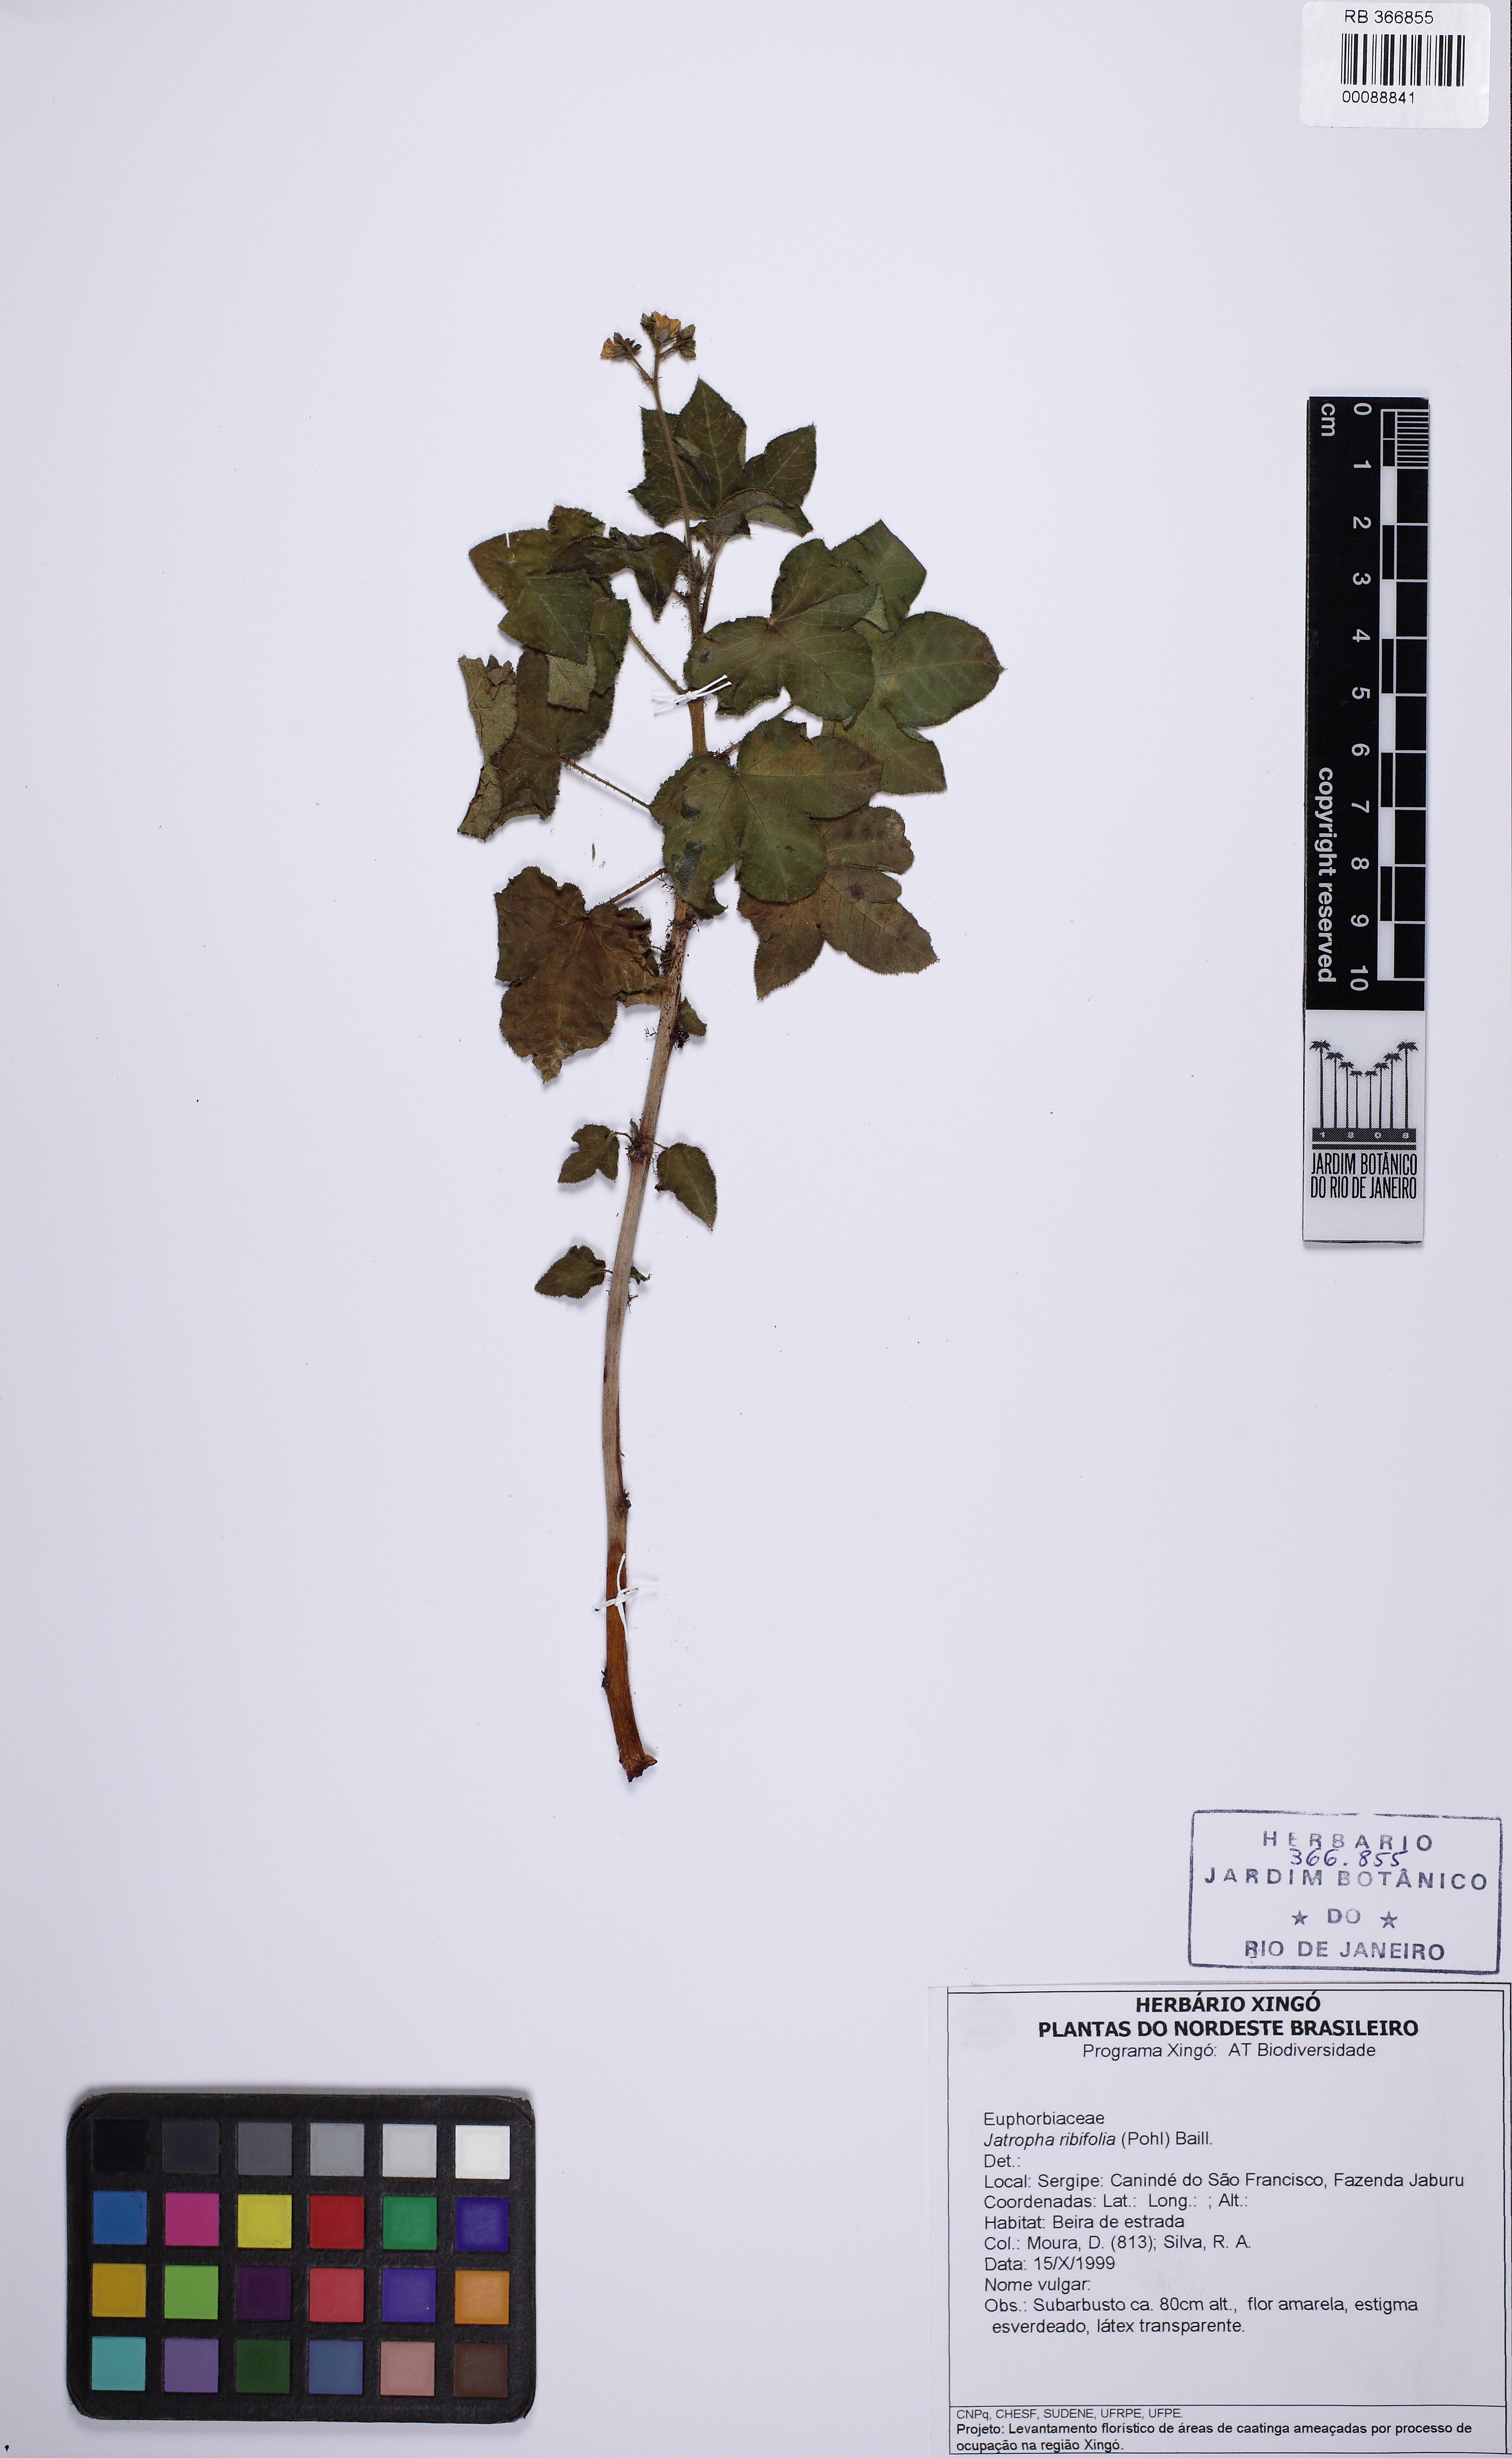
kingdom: Plantae
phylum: Tracheophyta
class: Magnoliopsida
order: Malpighiales
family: Euphorbiaceae
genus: Jatropha
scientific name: Jatropha ribifolia
